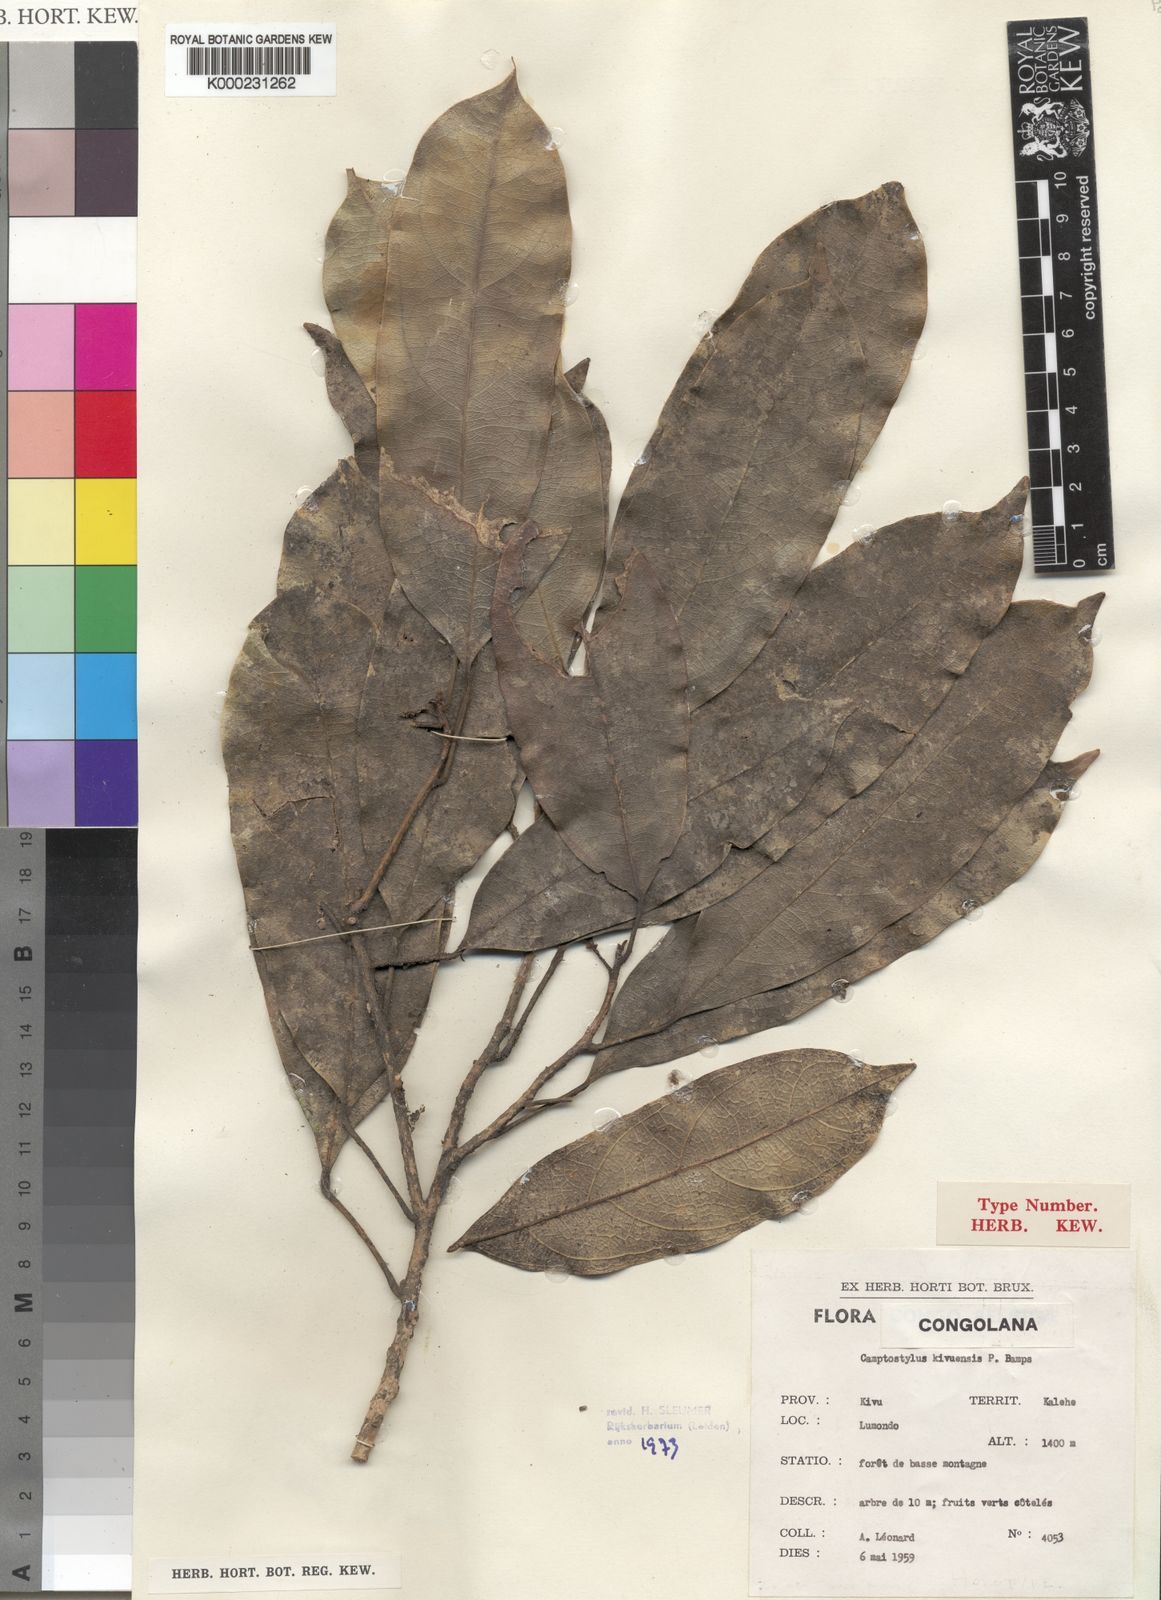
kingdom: Plantae
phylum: Tracheophyta
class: Magnoliopsida
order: Malpighiales
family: Achariaceae
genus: Camptostylus
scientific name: Camptostylus kivuensis
